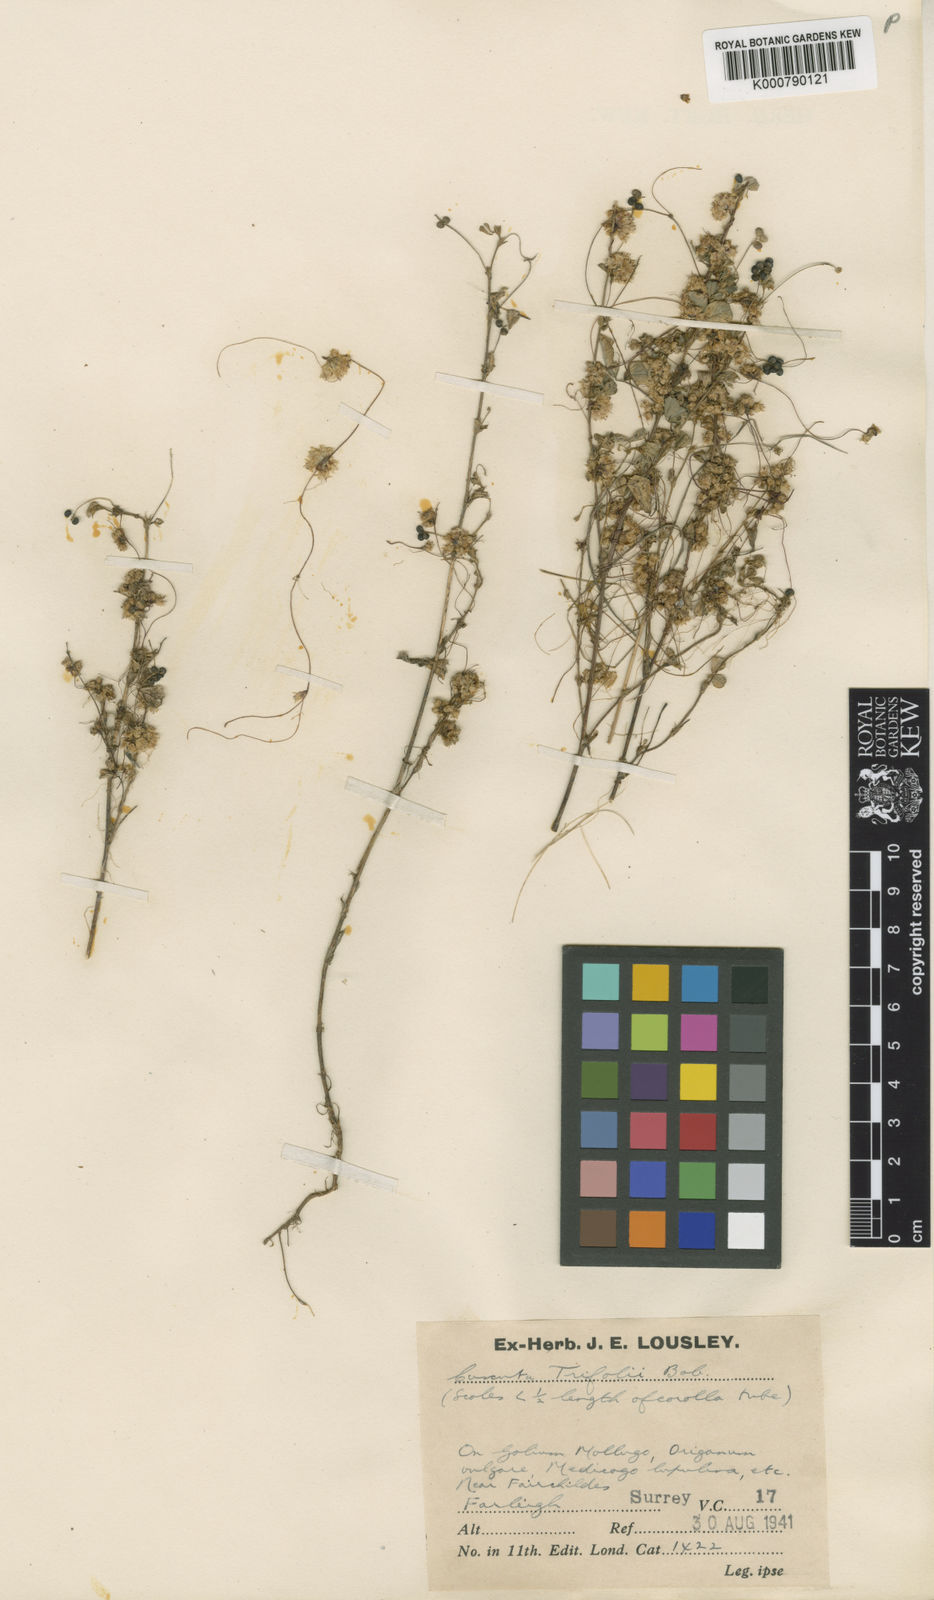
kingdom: Plantae
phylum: Tracheophyta
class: Magnoliopsida
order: Solanales
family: Convolvulaceae
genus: Cuscuta
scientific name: Cuscuta epithymum
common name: Clover dodder
